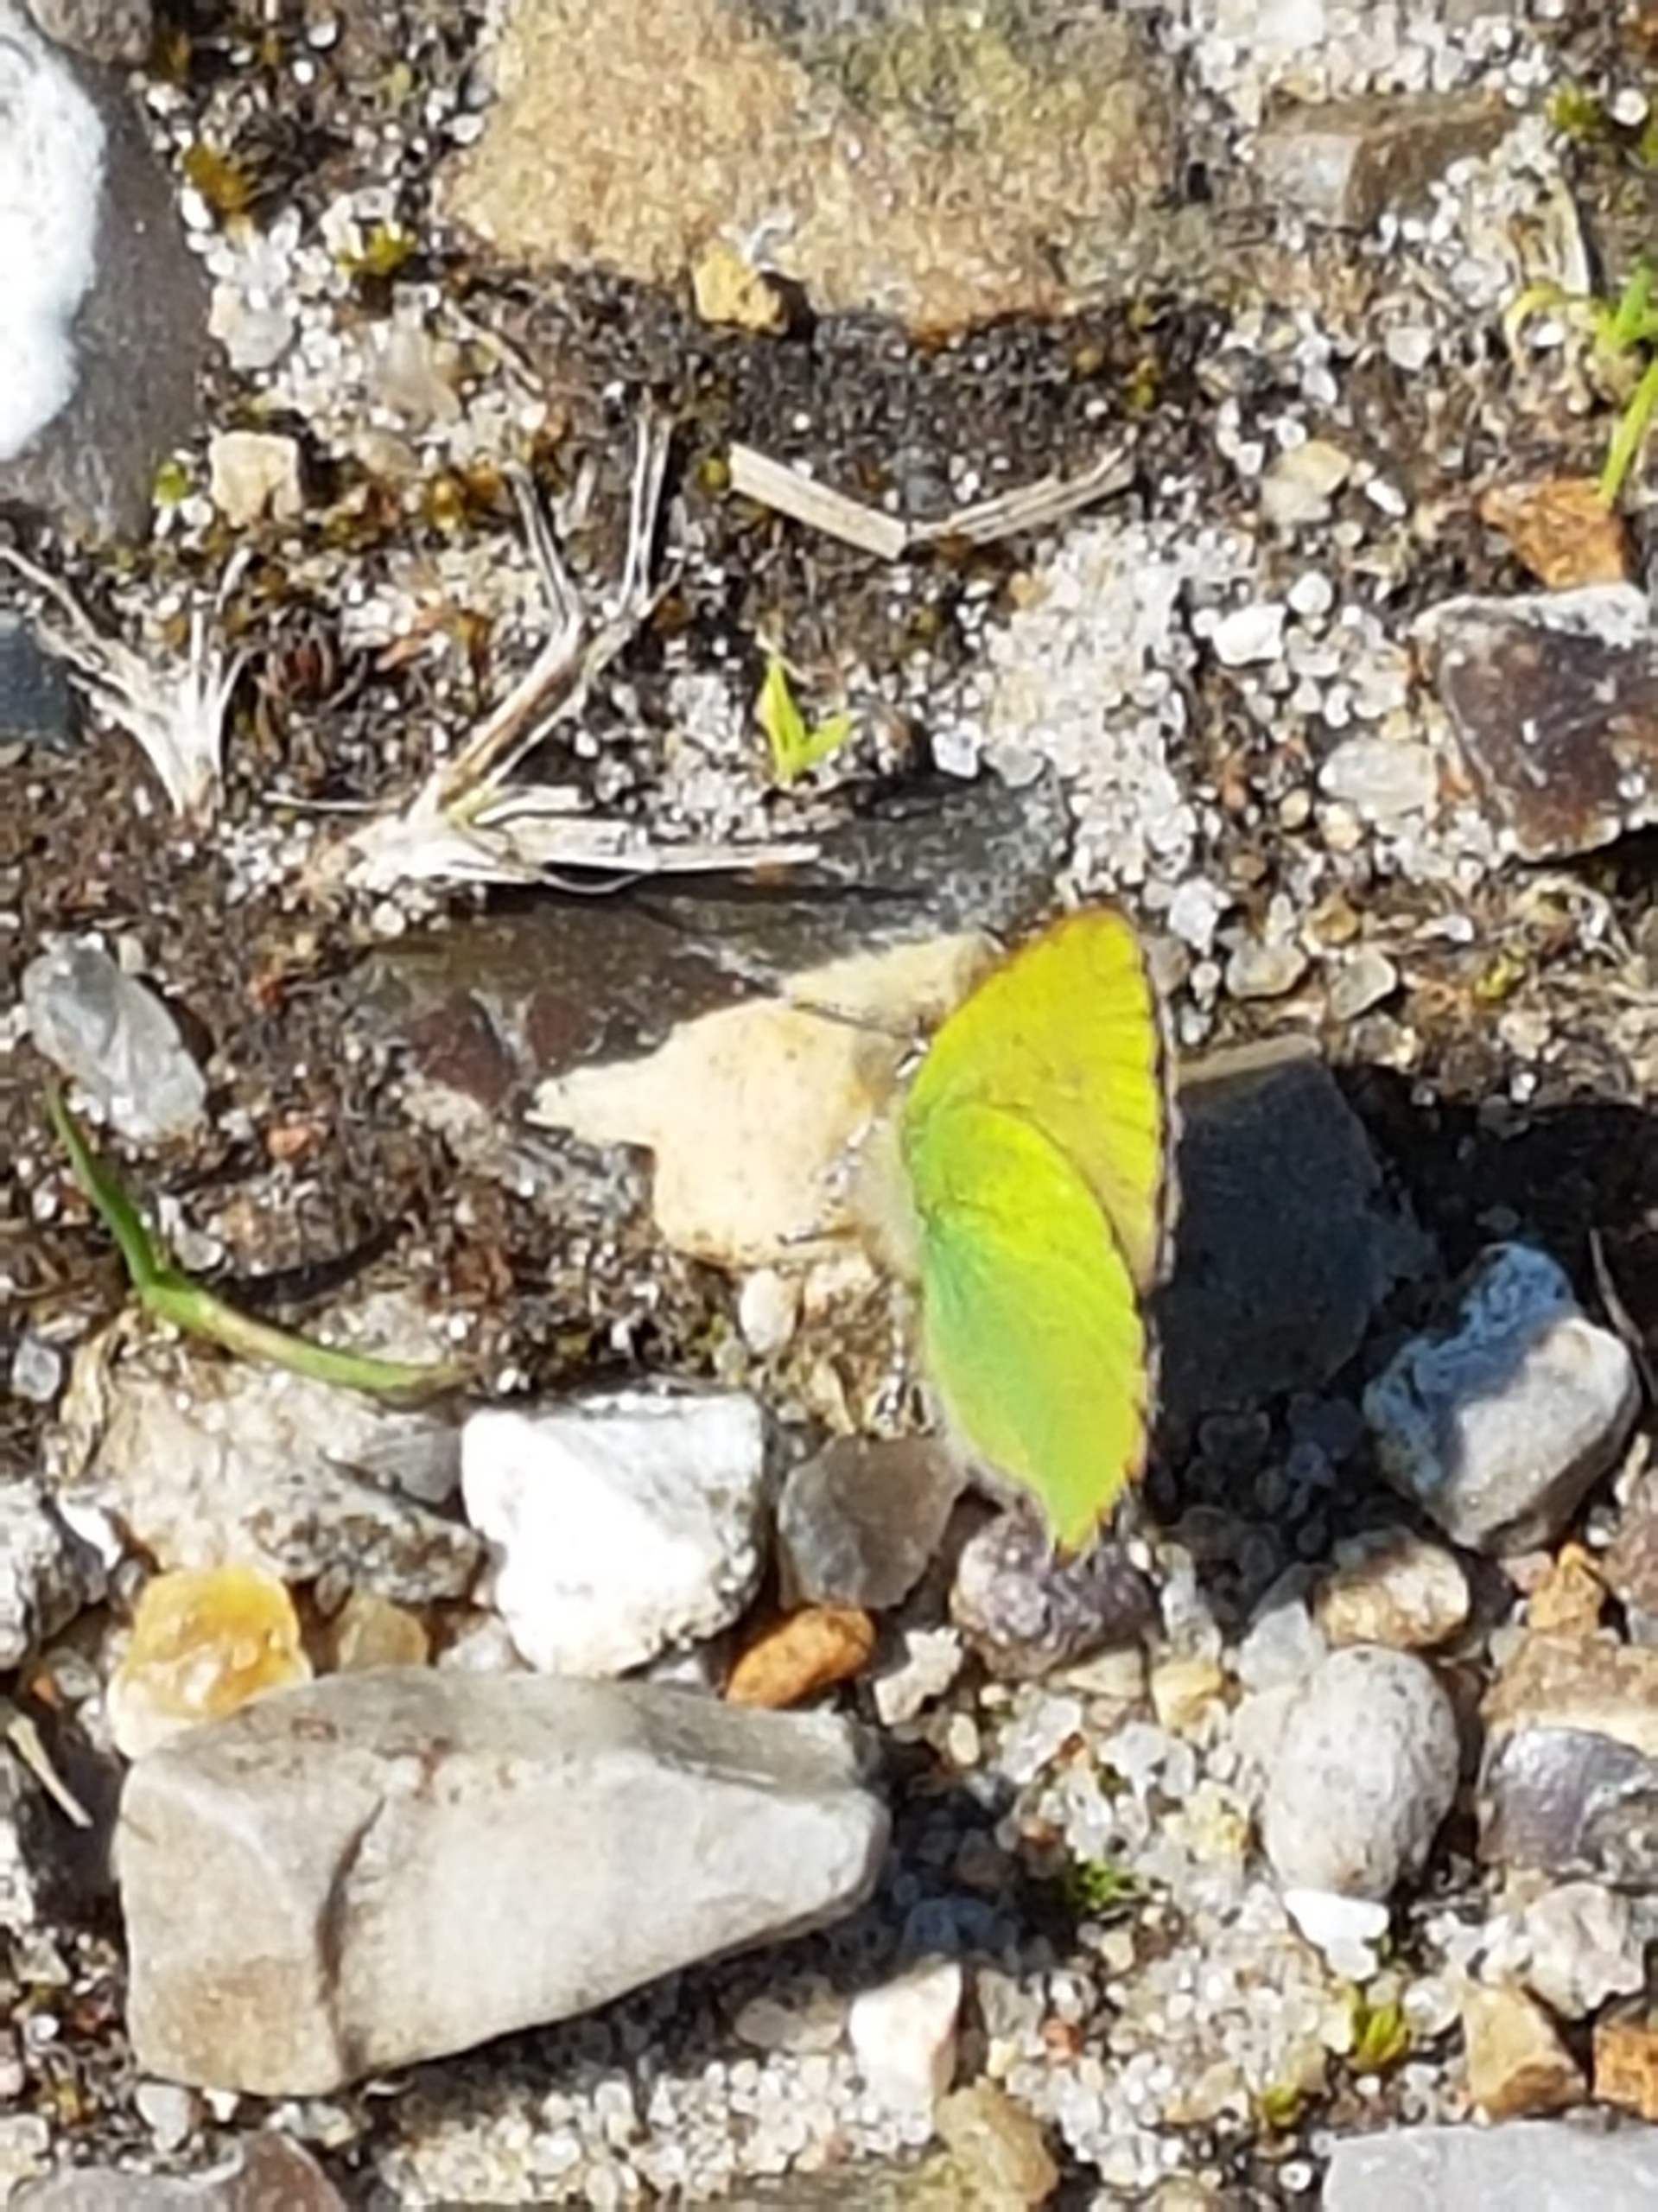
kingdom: Animalia
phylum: Arthropoda
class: Insecta
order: Lepidoptera
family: Lycaenidae
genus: Callophrys
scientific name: Callophrys rubi
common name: Grøn busksommerfugl
